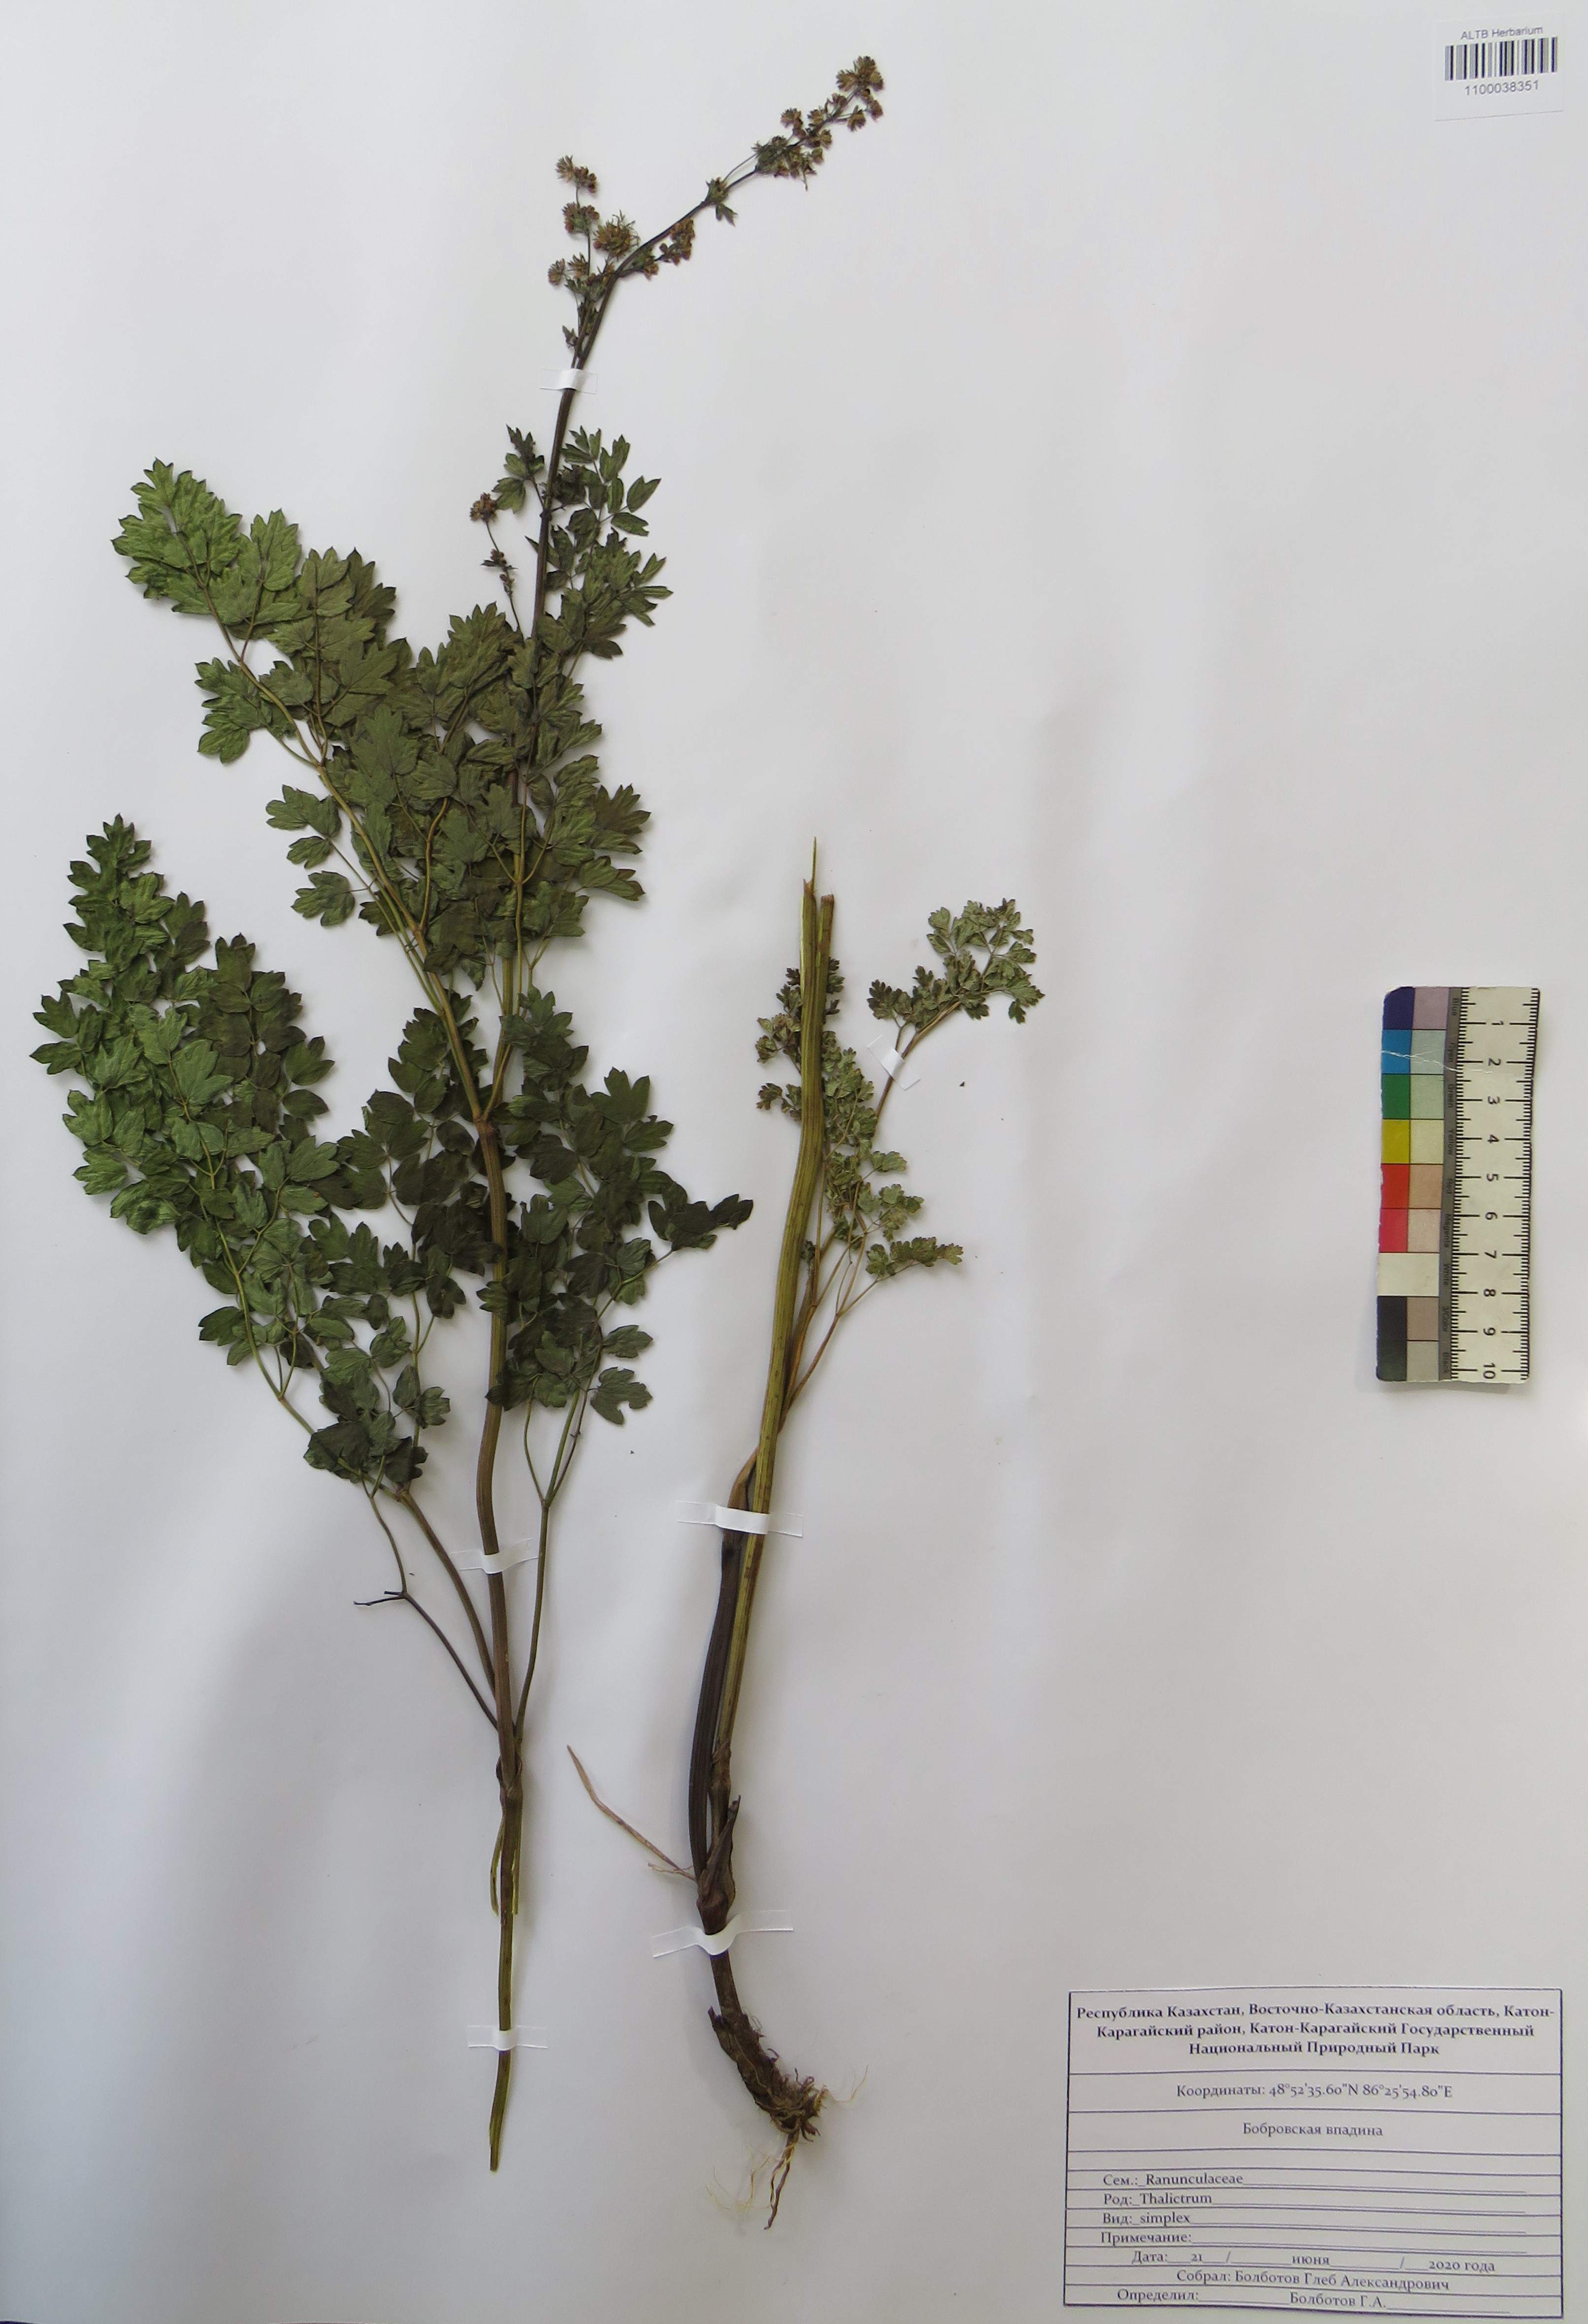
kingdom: Plantae
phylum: Tracheophyta
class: Magnoliopsida
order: Ranunculales
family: Ranunculaceae
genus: Thalictrum
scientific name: Thalictrum simplex
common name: Small meadow-rue
